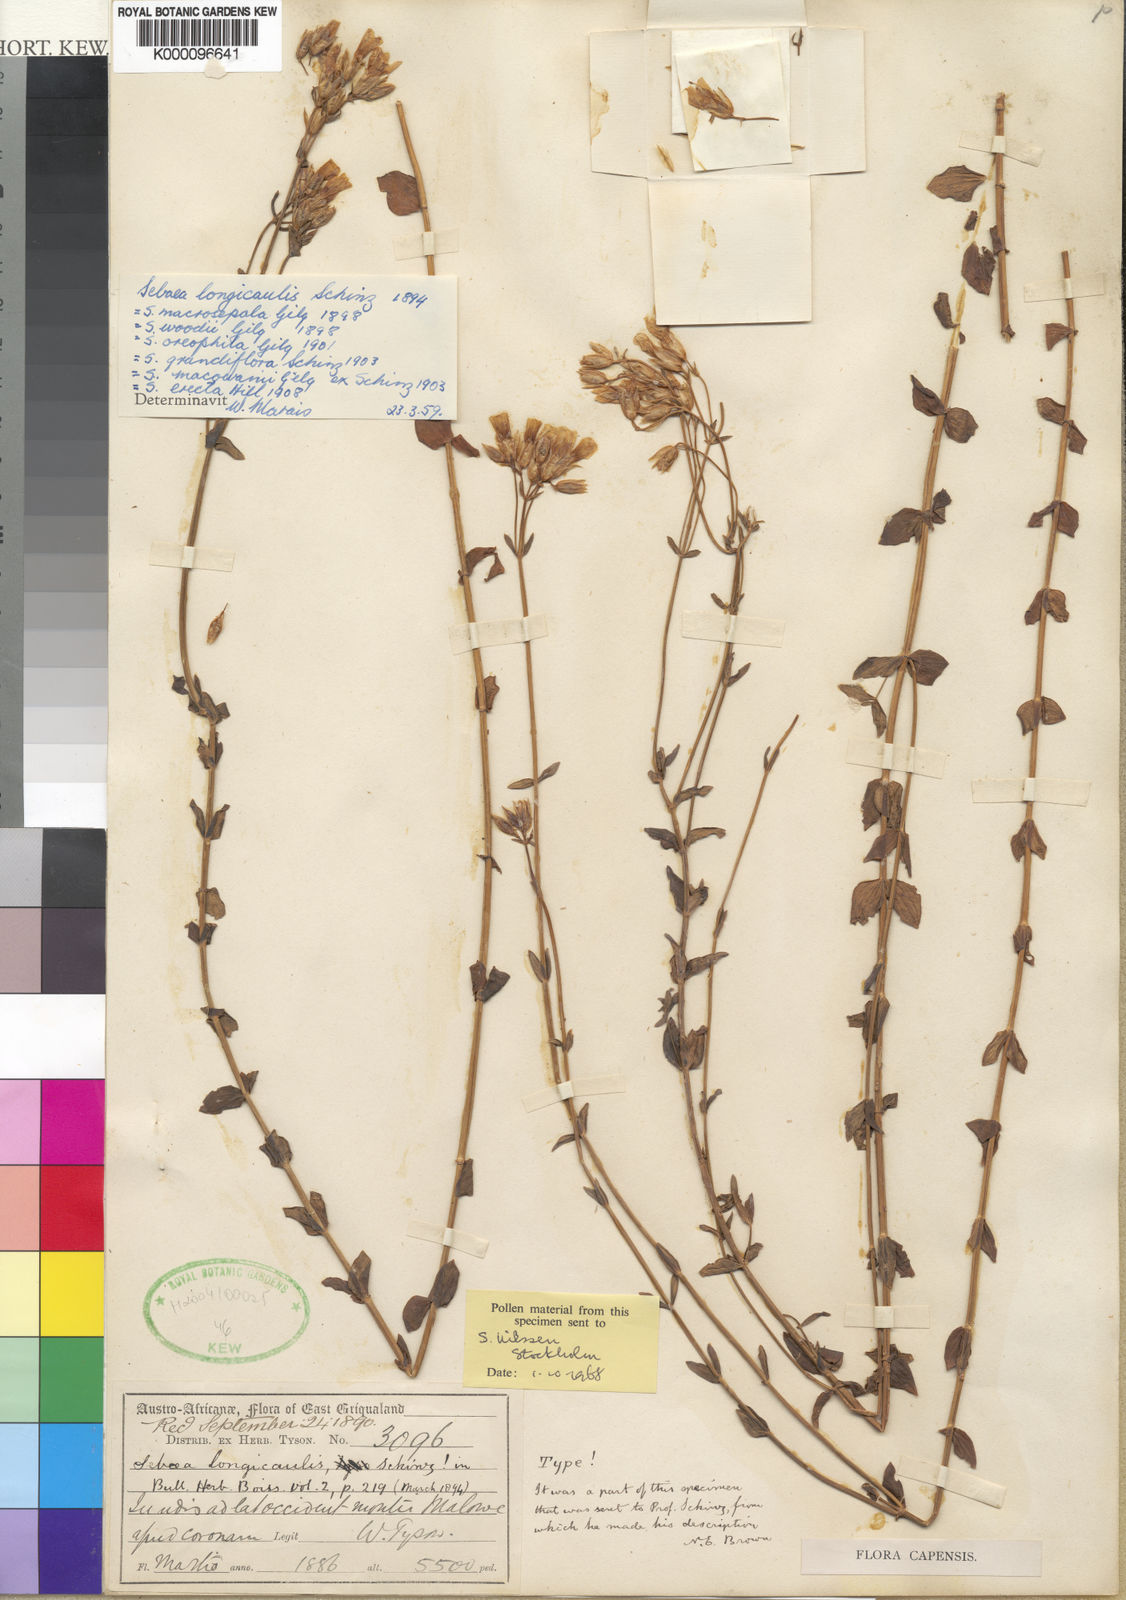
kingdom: Plantae
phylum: Tracheophyta
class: Magnoliopsida
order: Gentianales
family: Gentianaceae
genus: Sebaea
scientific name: Sebaea longicaulis
